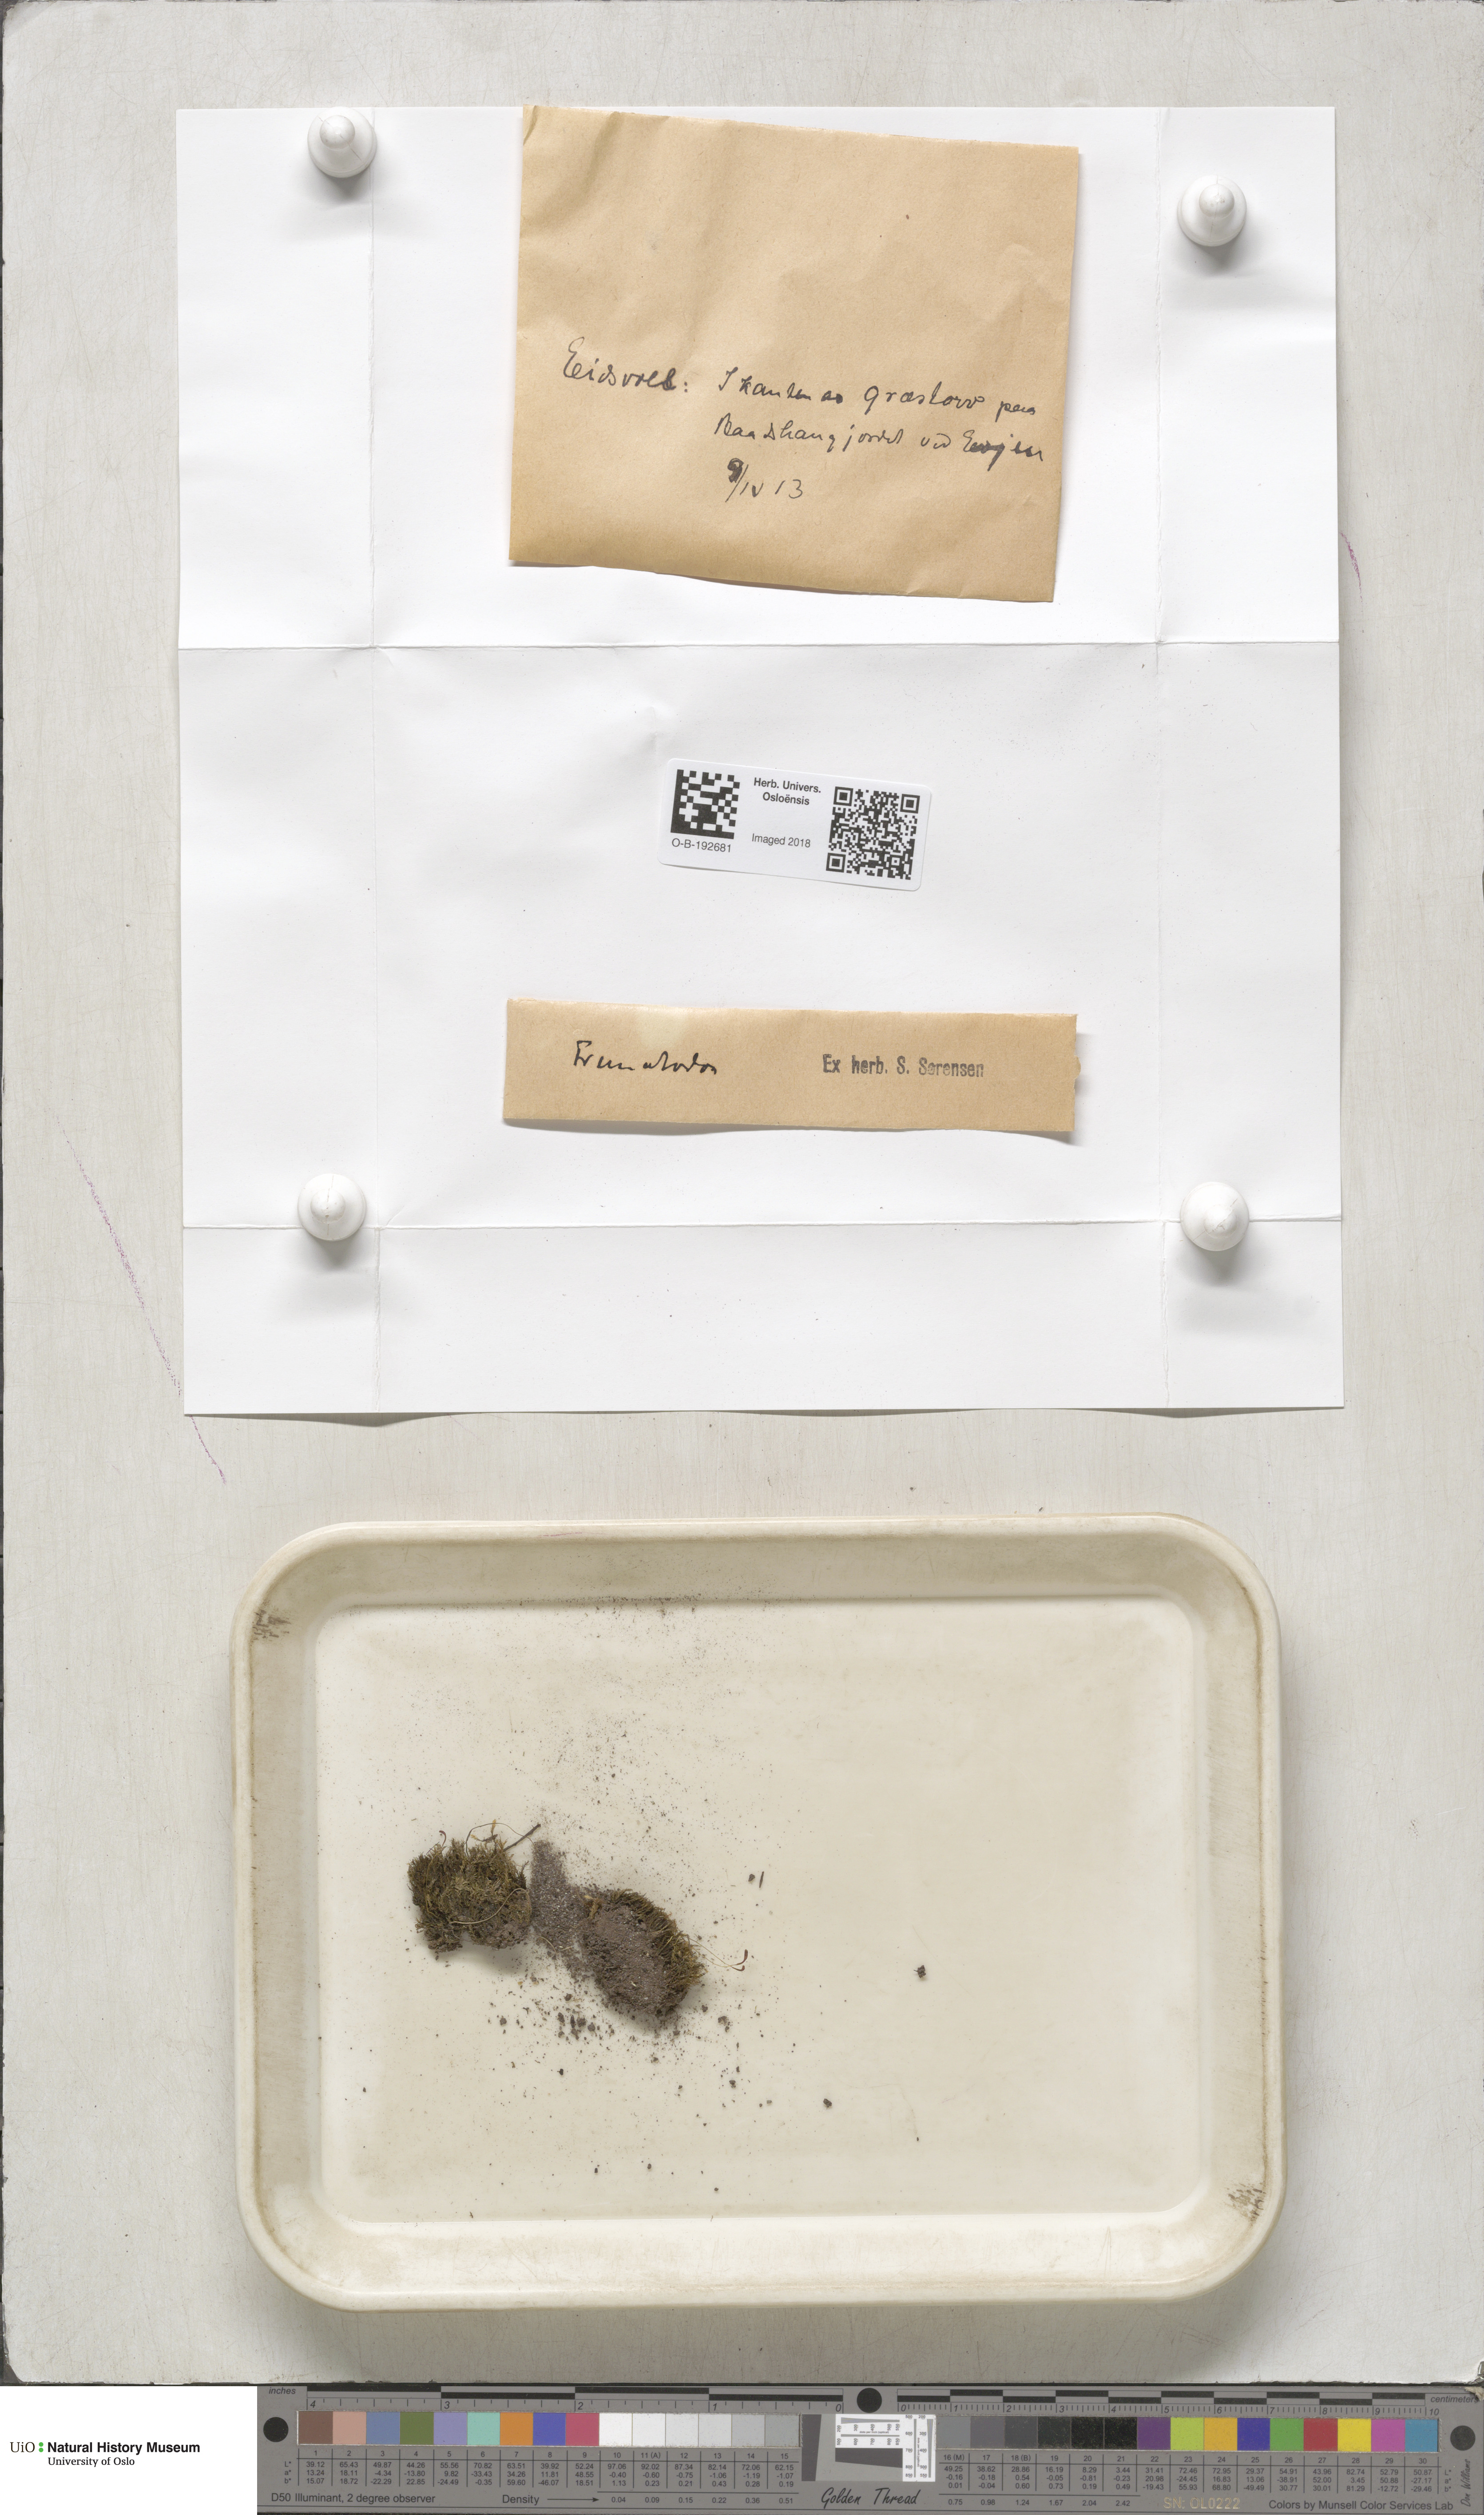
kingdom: Plantae
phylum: Bryophyta
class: Bryopsida
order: Dicranales
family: Bruchiaceae
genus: Trematodon
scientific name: Trematodon ambiguus
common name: Ambiguous long-necked moss
